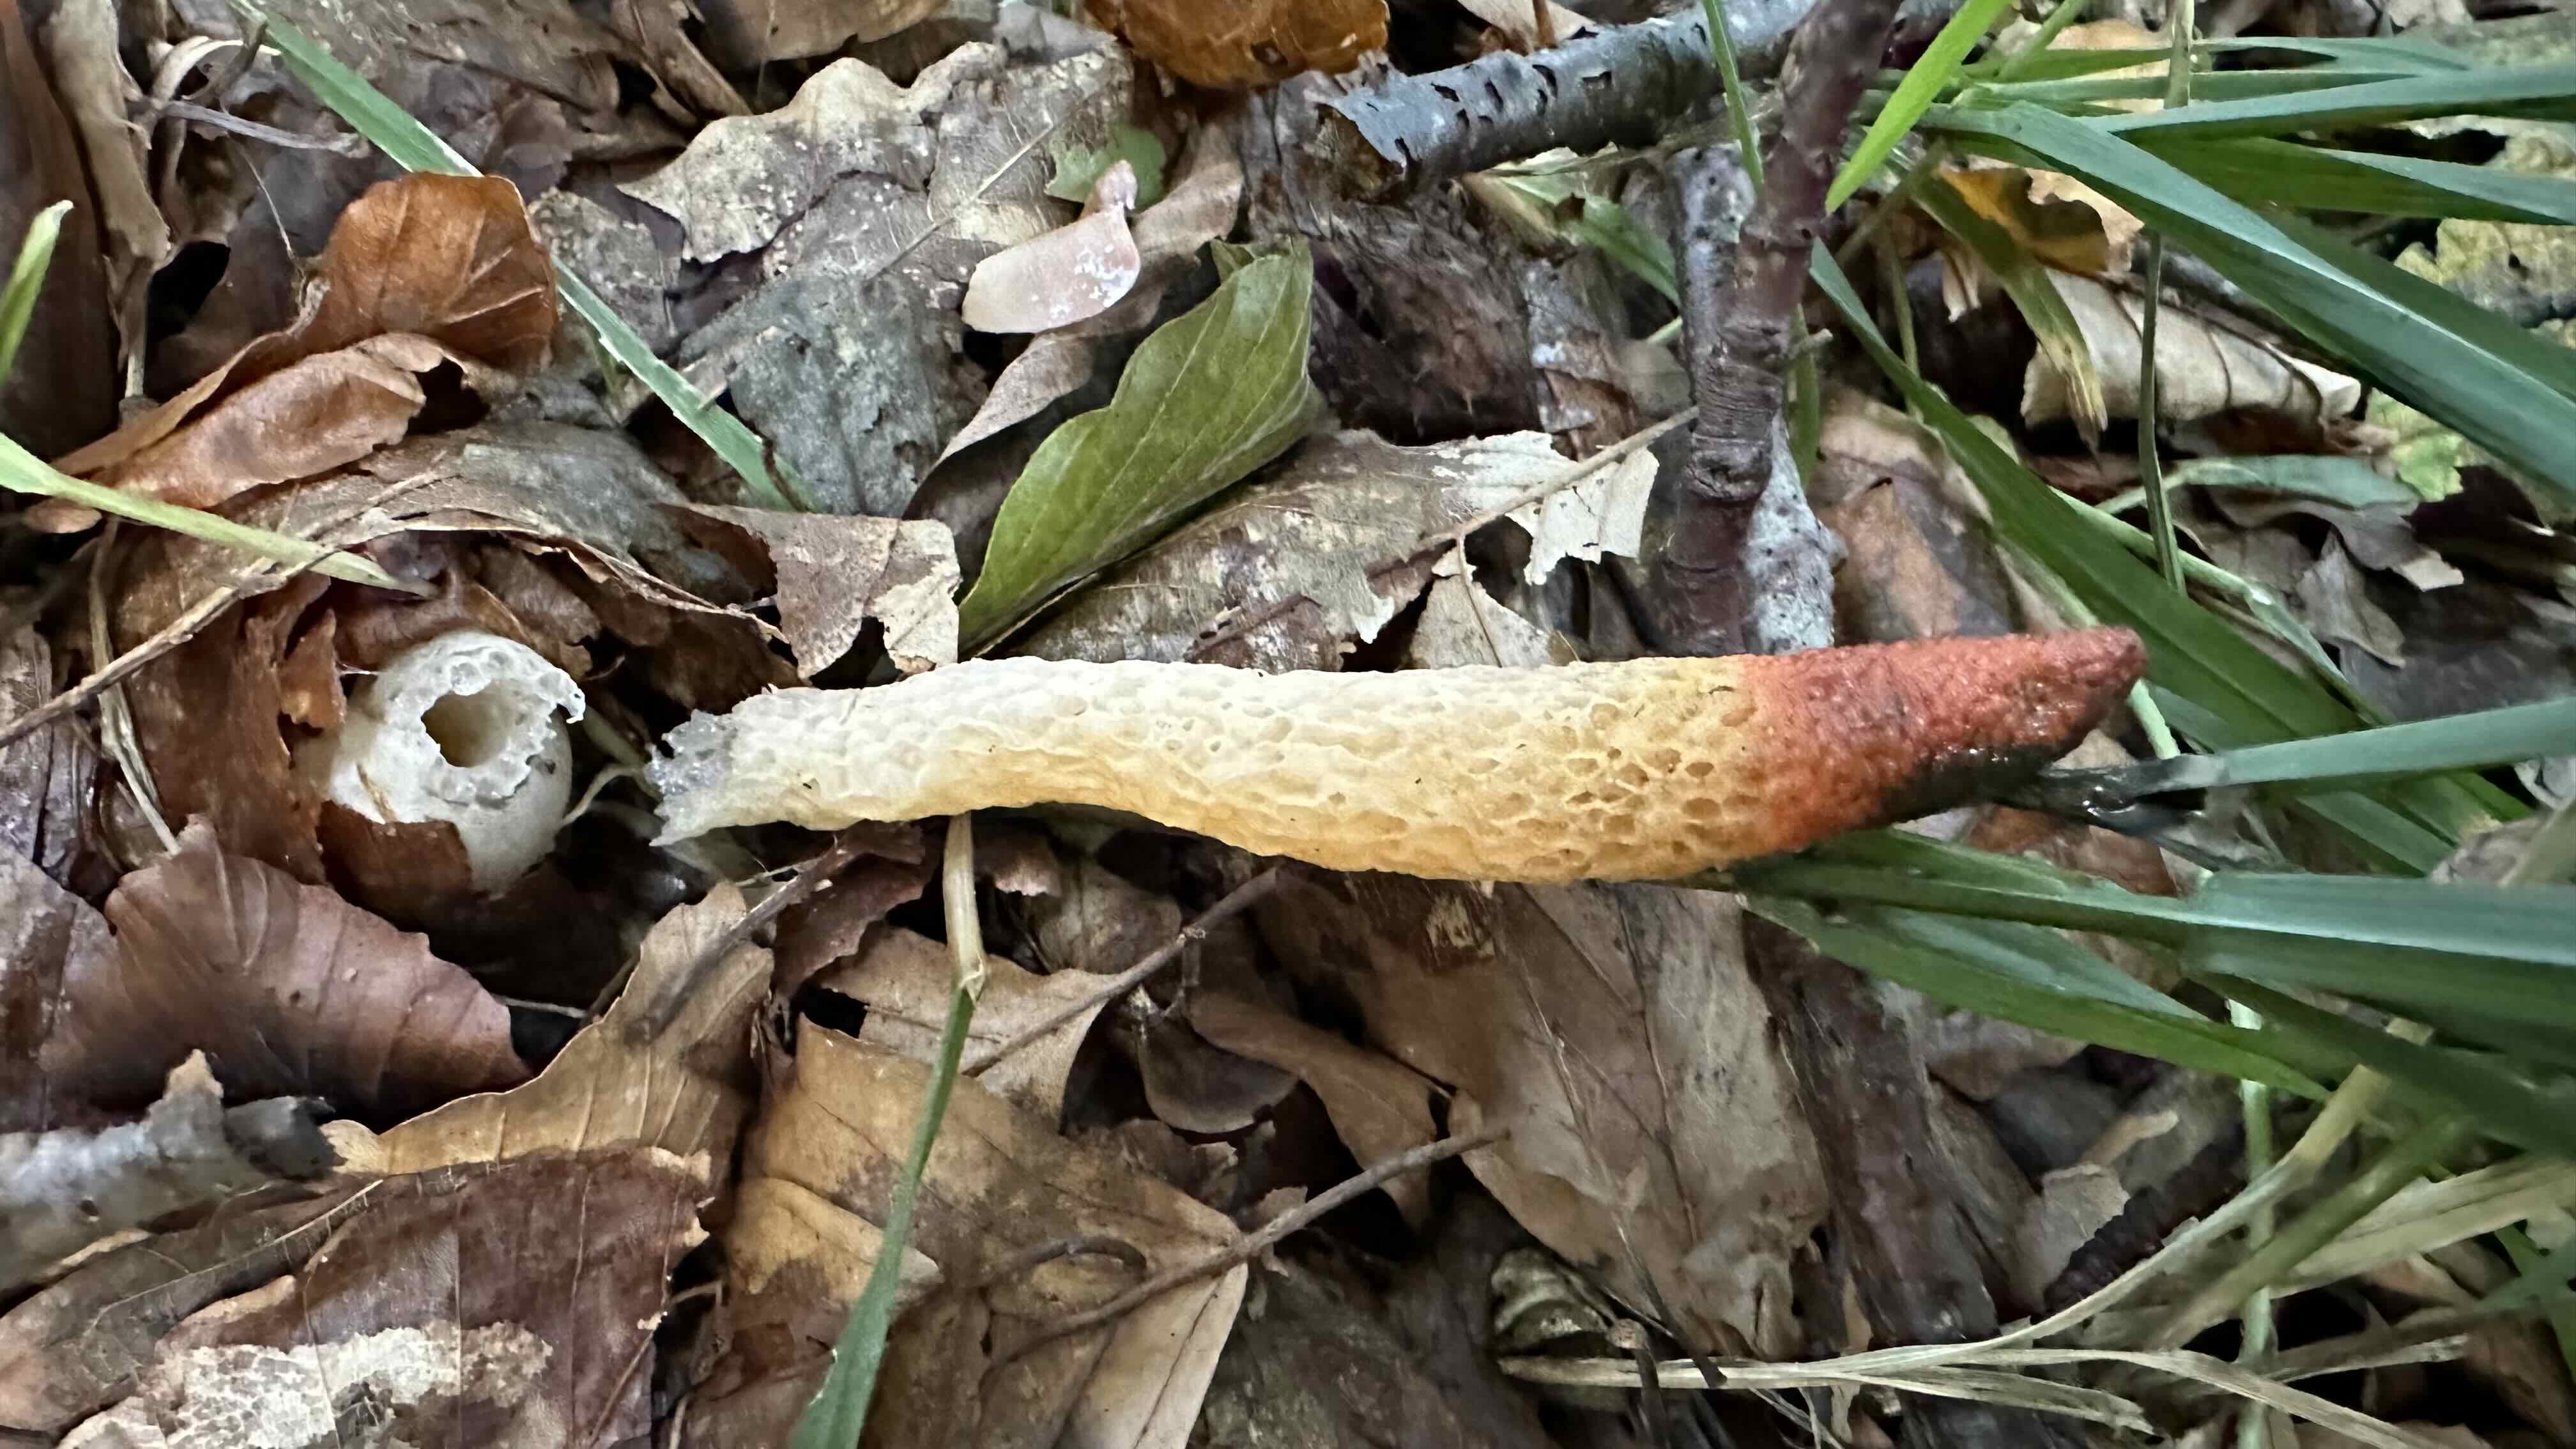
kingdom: Fungi
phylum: Basidiomycota
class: Agaricomycetes
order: Phallales
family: Phallaceae
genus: Mutinus
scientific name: Mutinus caninus
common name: hunde-stinksvamp
